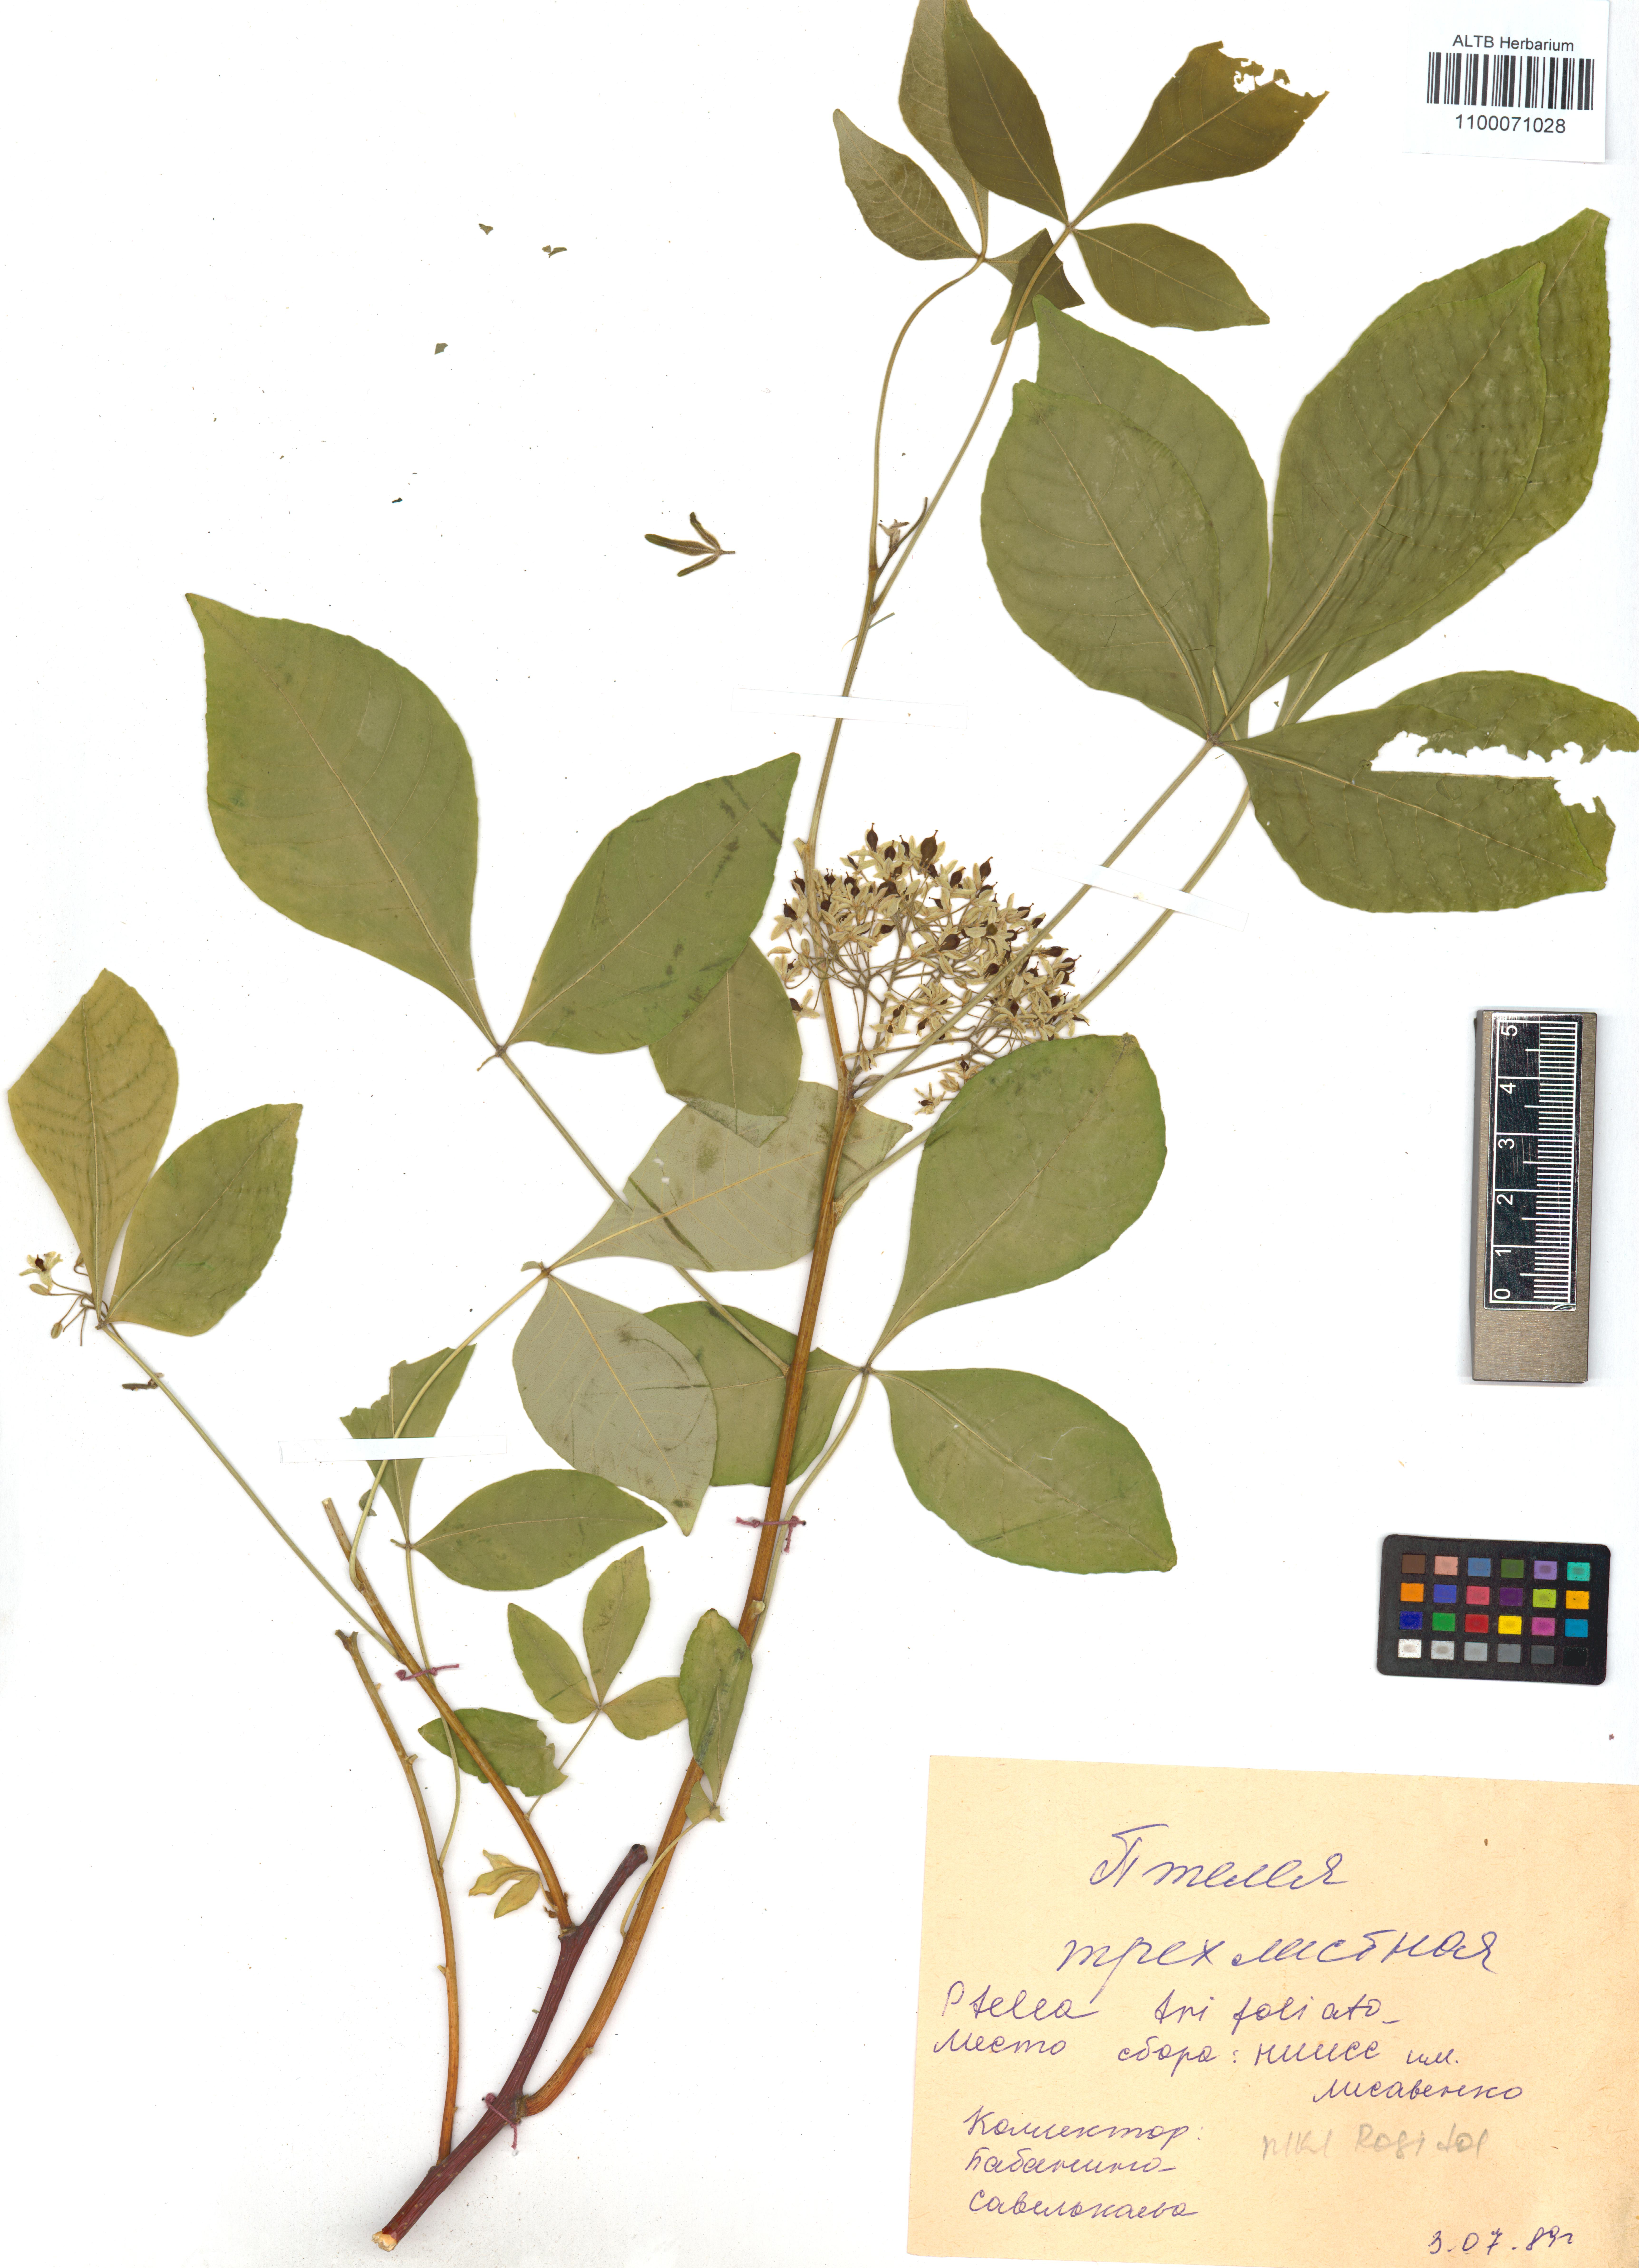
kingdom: Plantae
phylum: Tracheophyta
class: Magnoliopsida
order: Sapindales
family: Rutaceae
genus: Ptelea
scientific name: Ptelea trifoliata
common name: Common hop-tree
